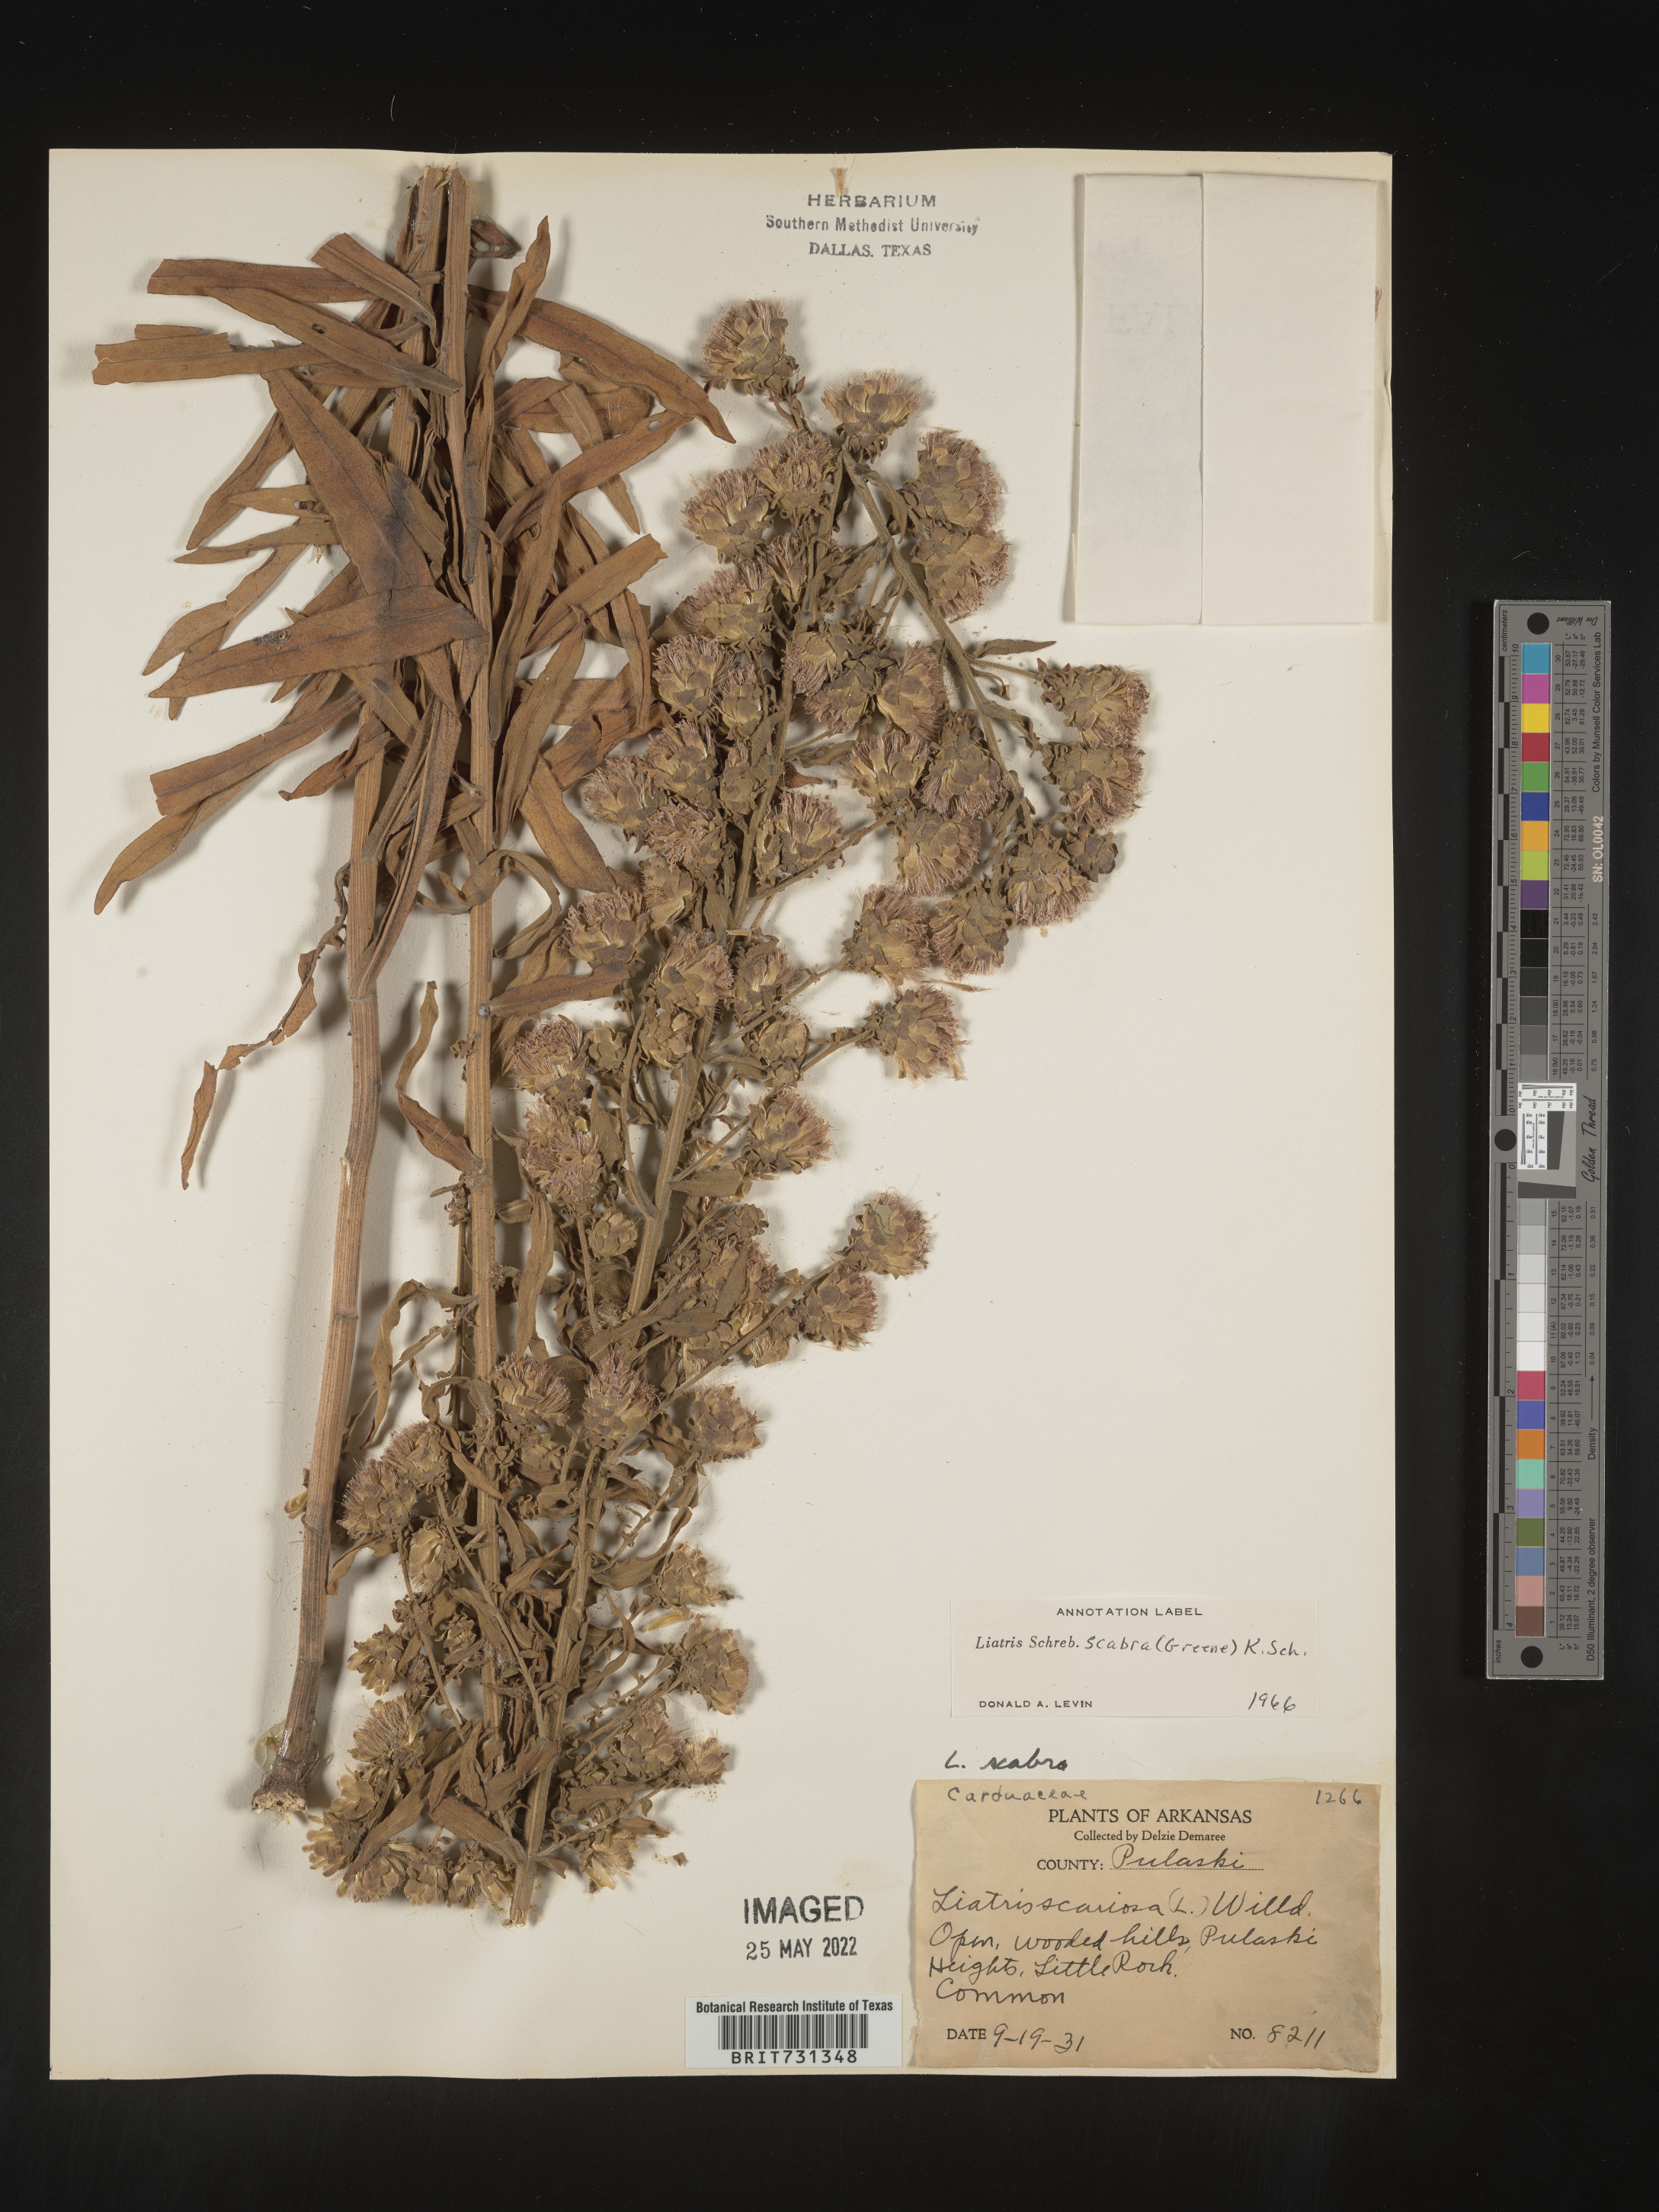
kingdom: Plantae
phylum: Tracheophyta
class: Magnoliopsida
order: Asterales
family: Asteraceae
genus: Liatris
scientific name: Liatris squarrulosa
